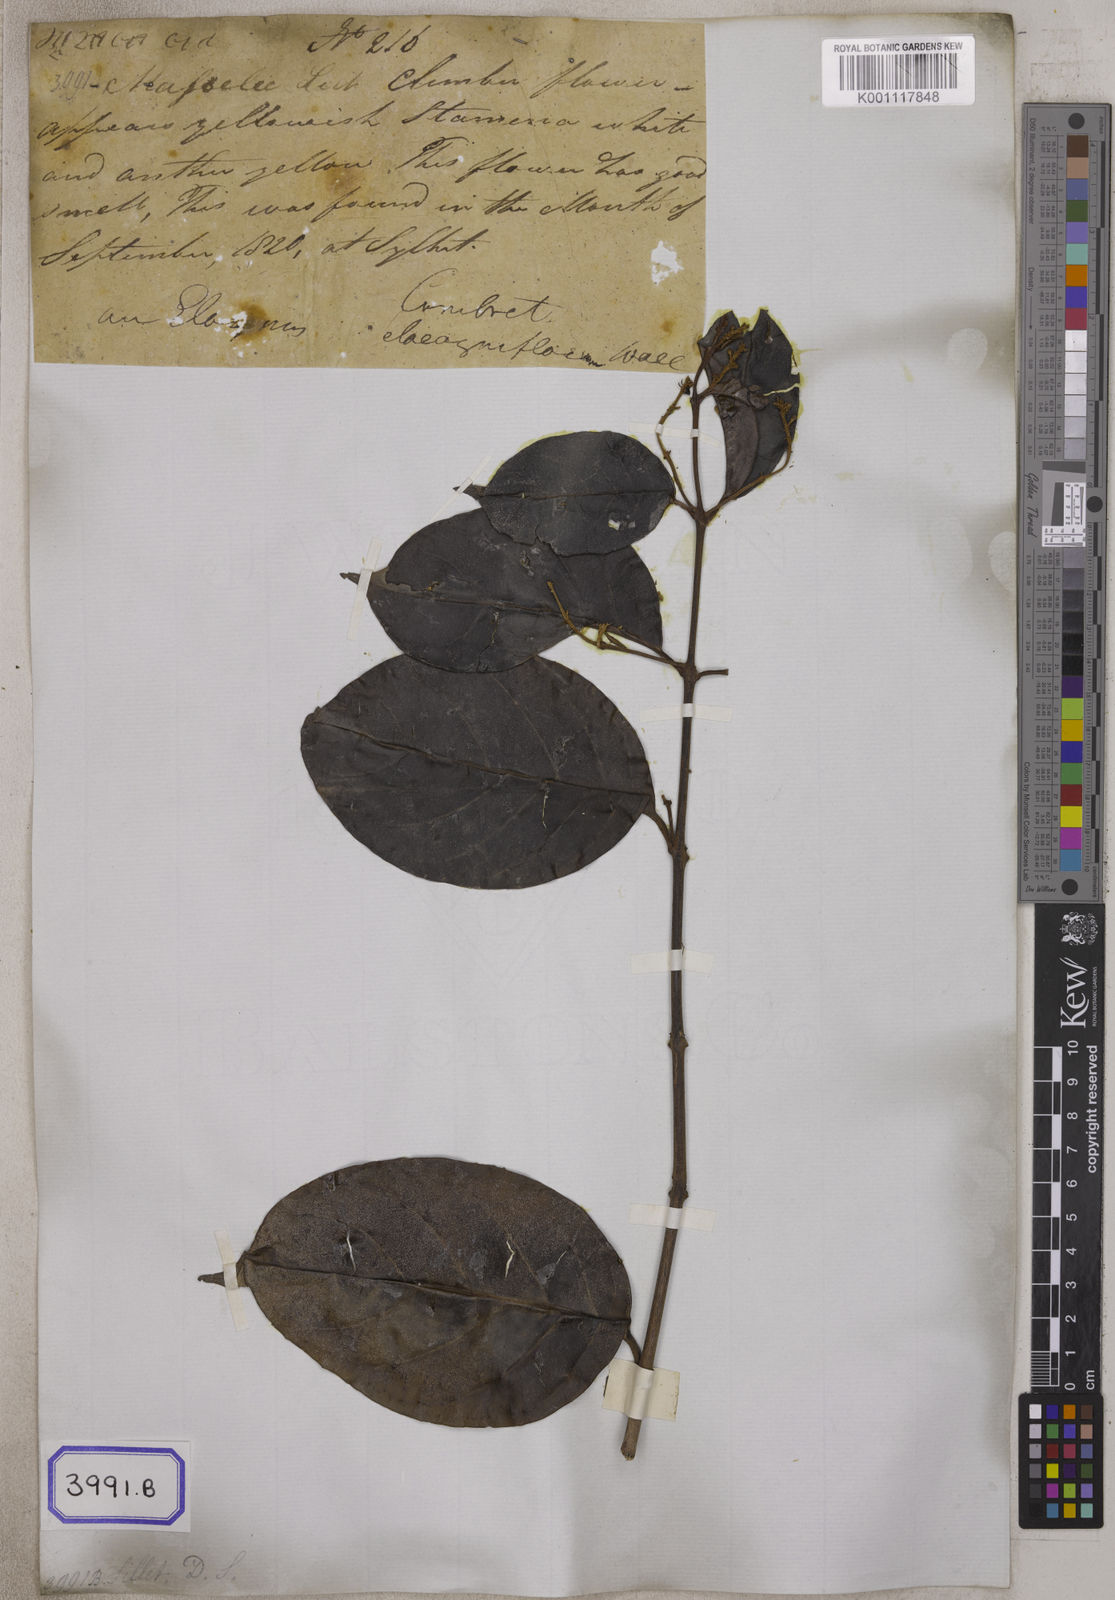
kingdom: Plantae
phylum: Tracheophyta
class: Magnoliopsida
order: Myrtales
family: Combretaceae
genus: Combretum
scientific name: Combretum punctatum
